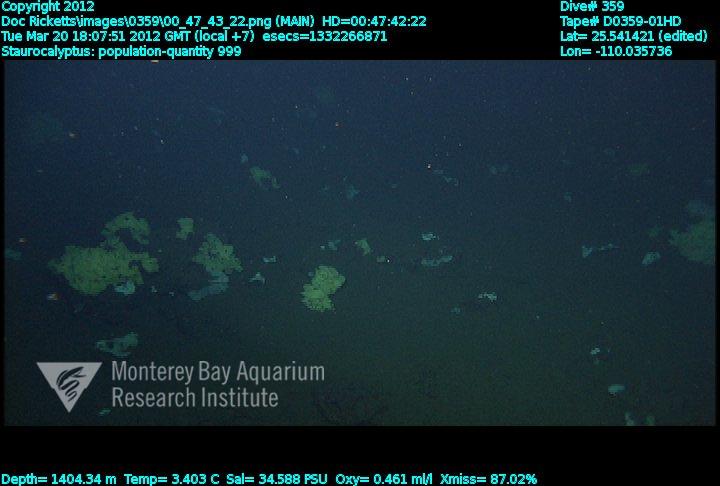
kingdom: Animalia
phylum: Porifera
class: Hexactinellida
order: Lyssacinosida
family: Rossellidae
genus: Staurocalyptus
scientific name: Staurocalyptus
